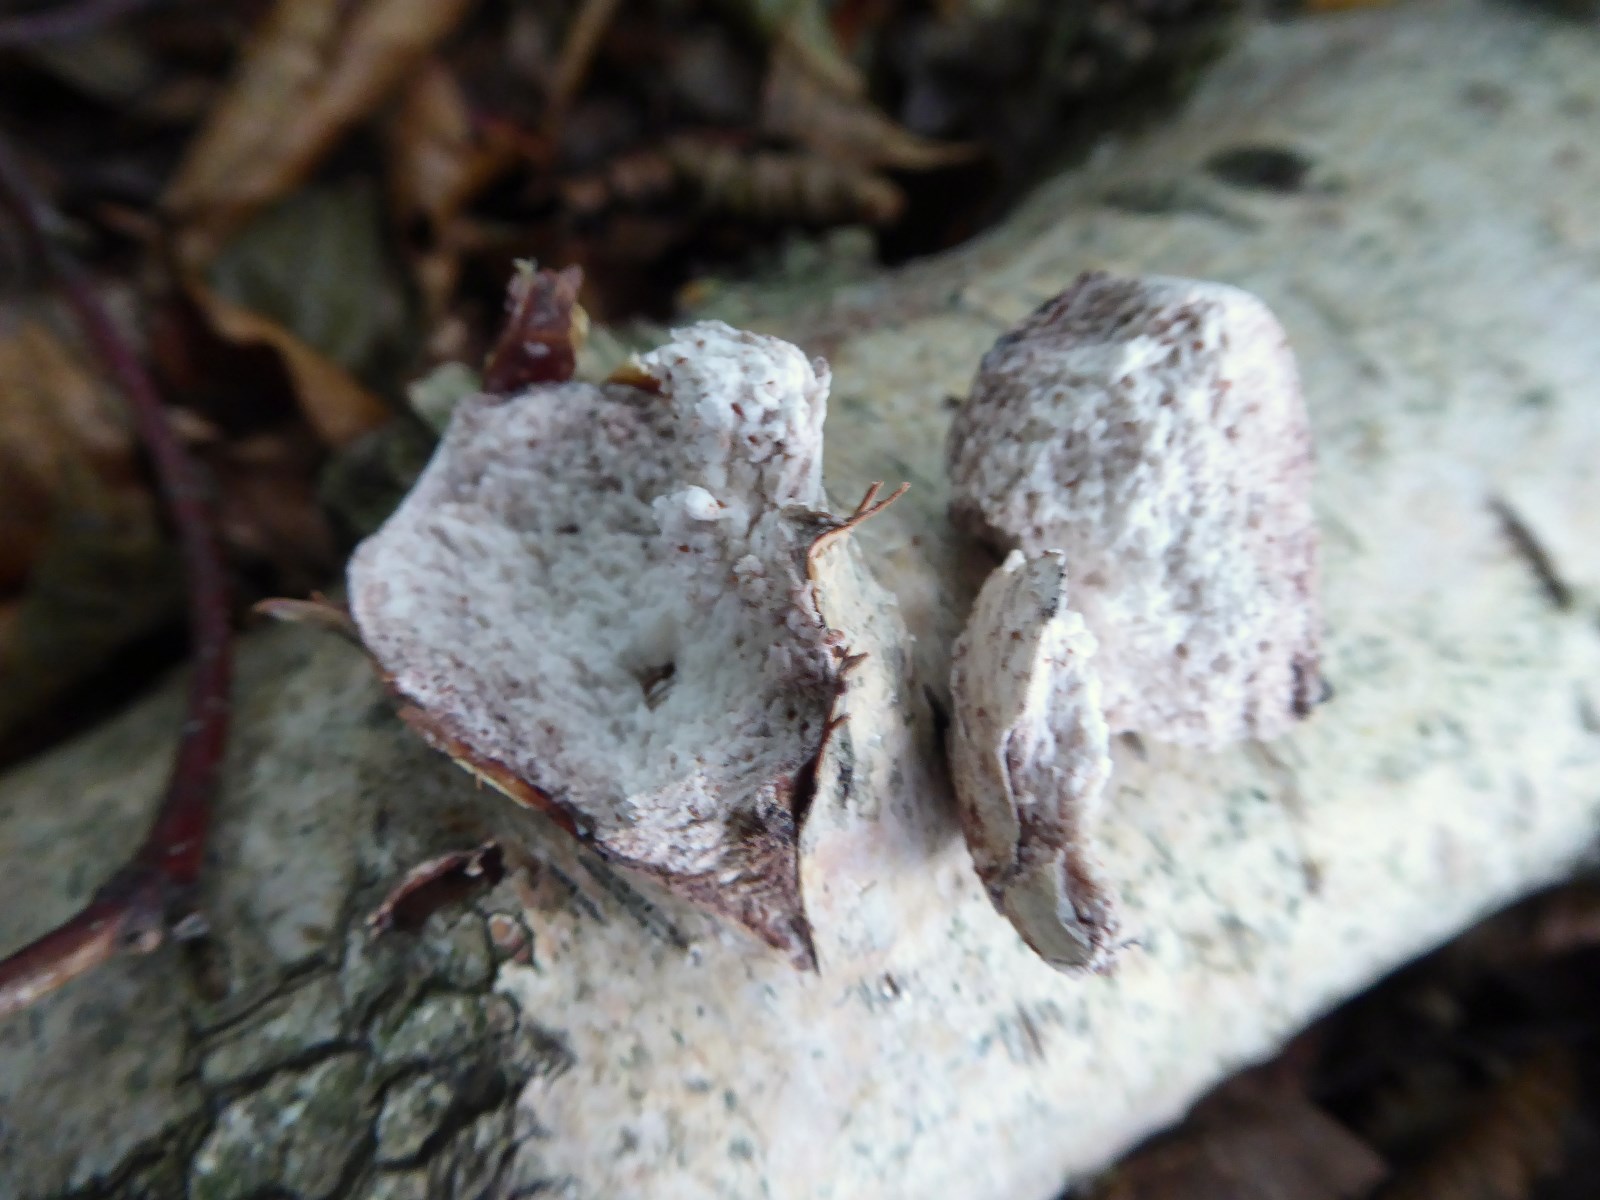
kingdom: Fungi
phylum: Basidiomycota
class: Agaricomycetes
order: Polyporales
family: Fomitopsidaceae
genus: Fomitopsis
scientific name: Fomitopsis betulina
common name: birkeporesvamp
